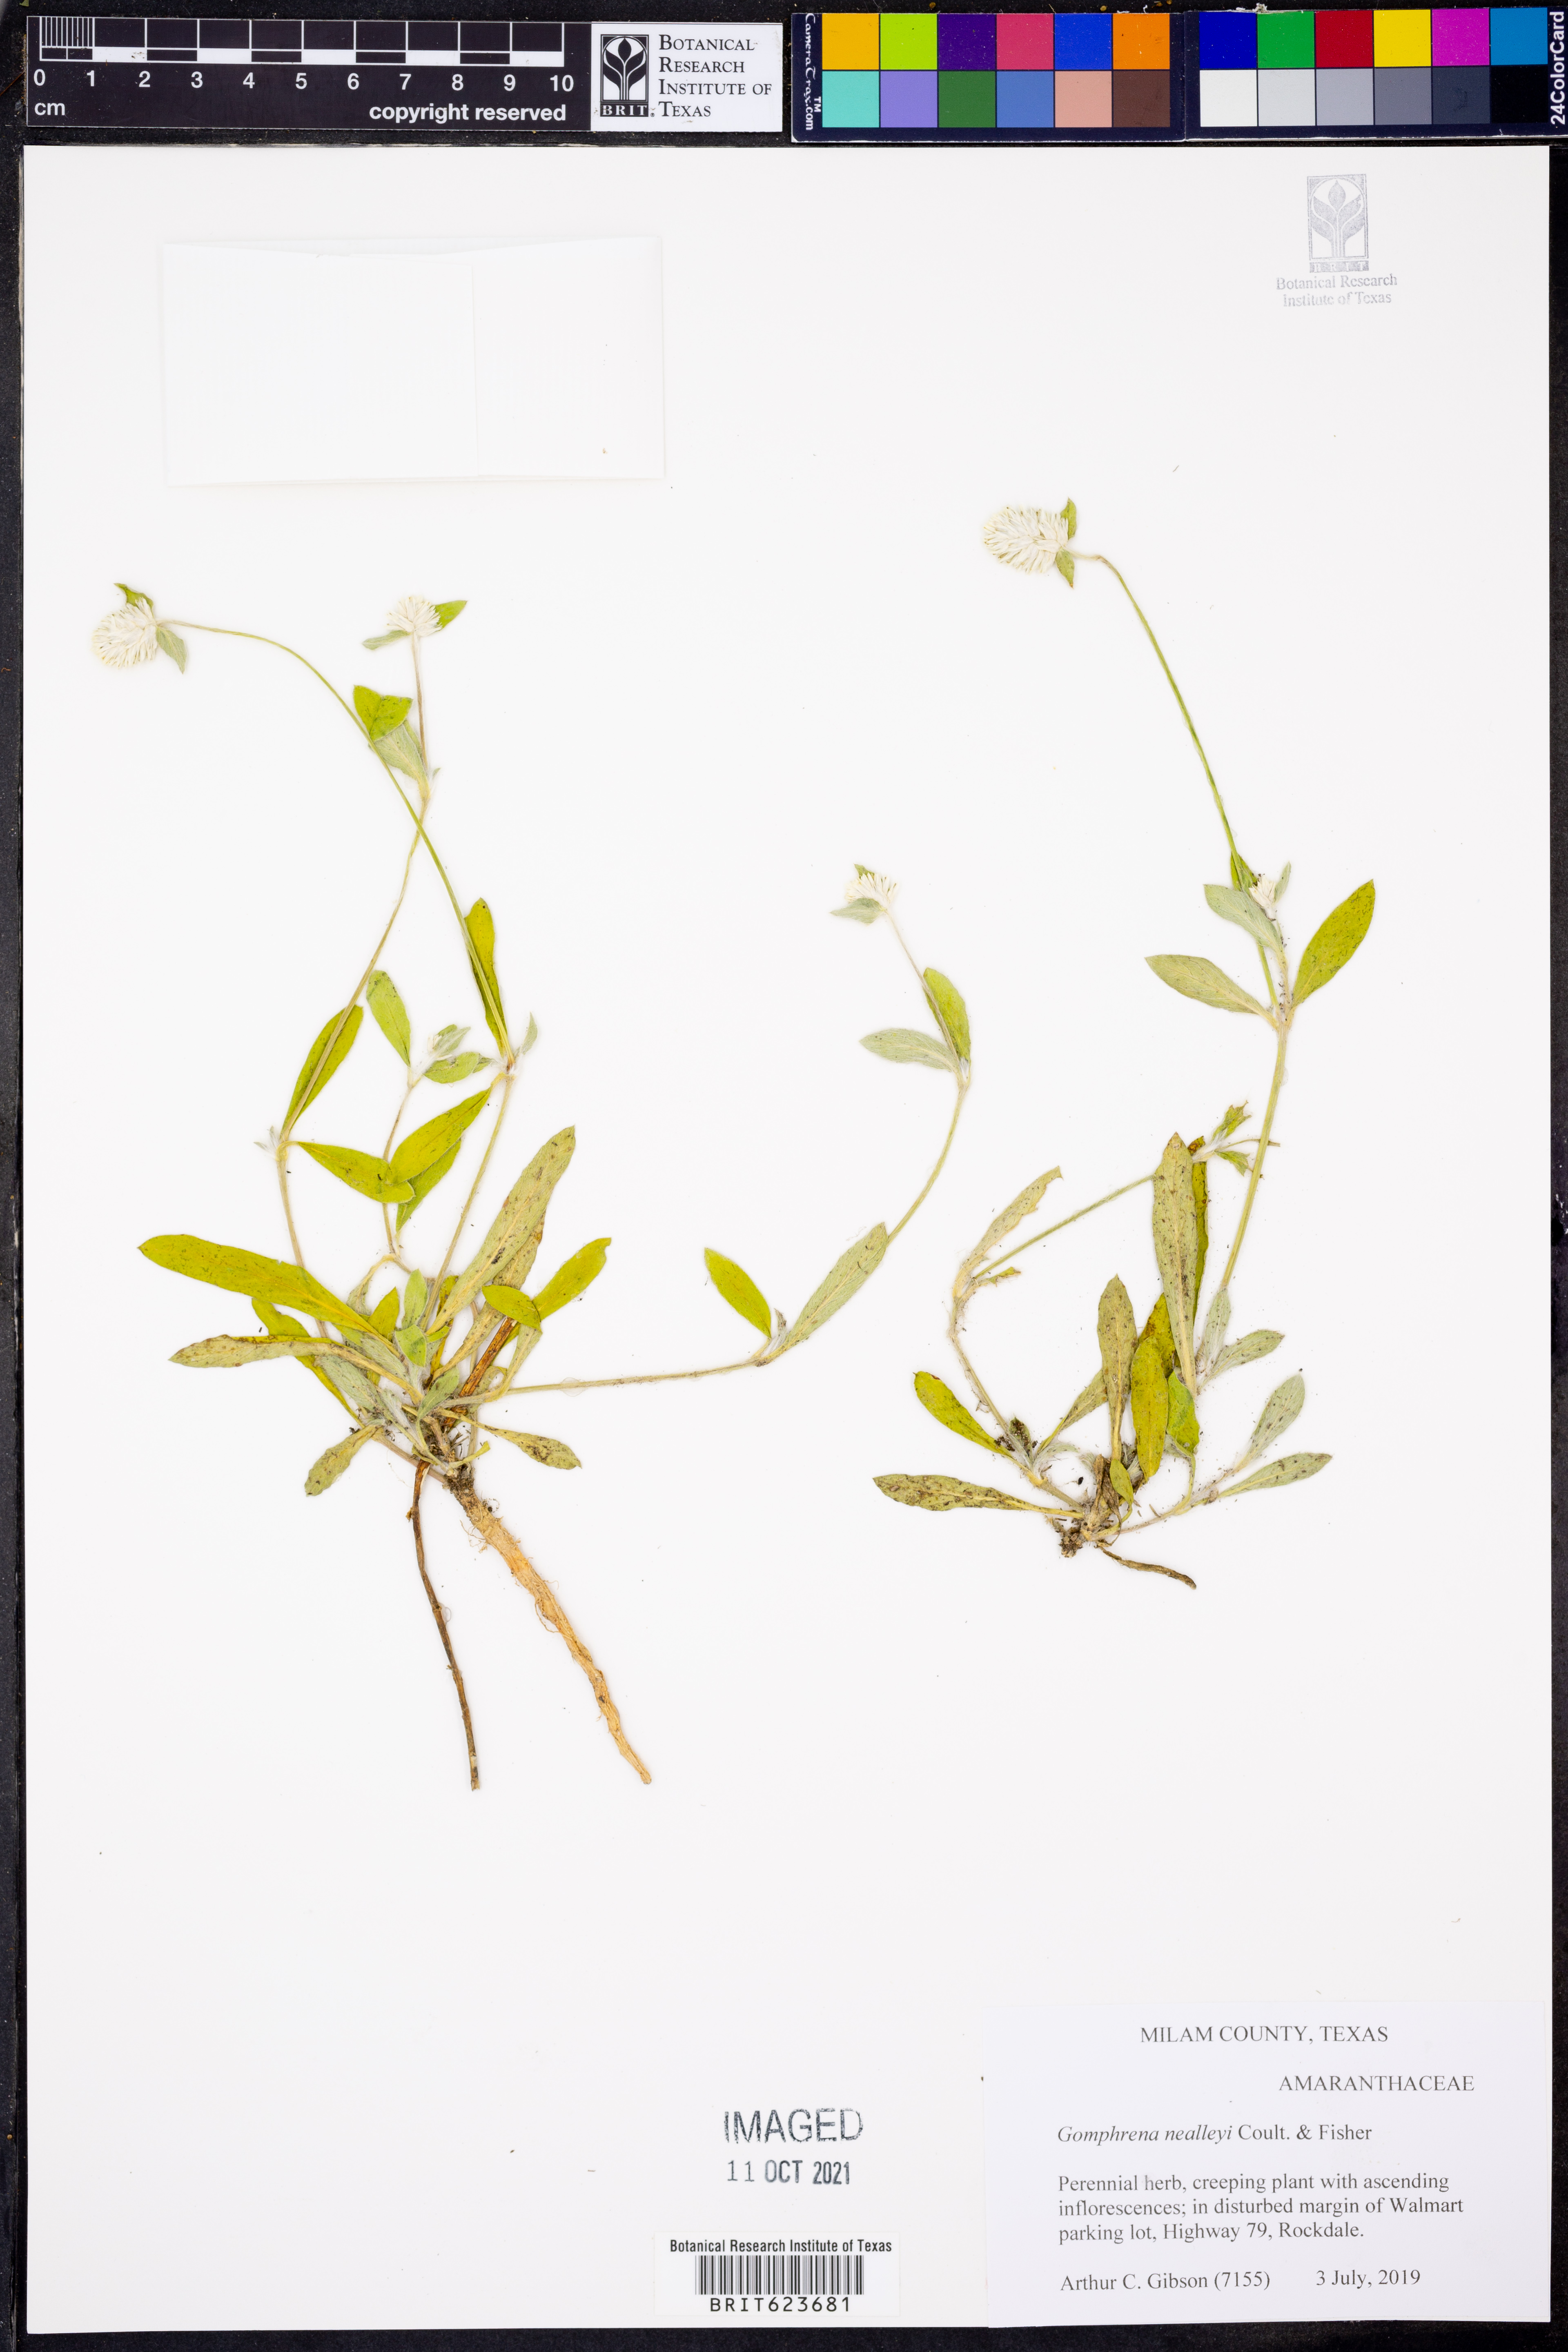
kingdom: Plantae
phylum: Tracheophyta
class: Magnoliopsida
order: Caryophyllales
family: Amaranthaceae
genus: Gomphrena
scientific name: Gomphrena nealleyi
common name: Nealley's globe-amaranth
